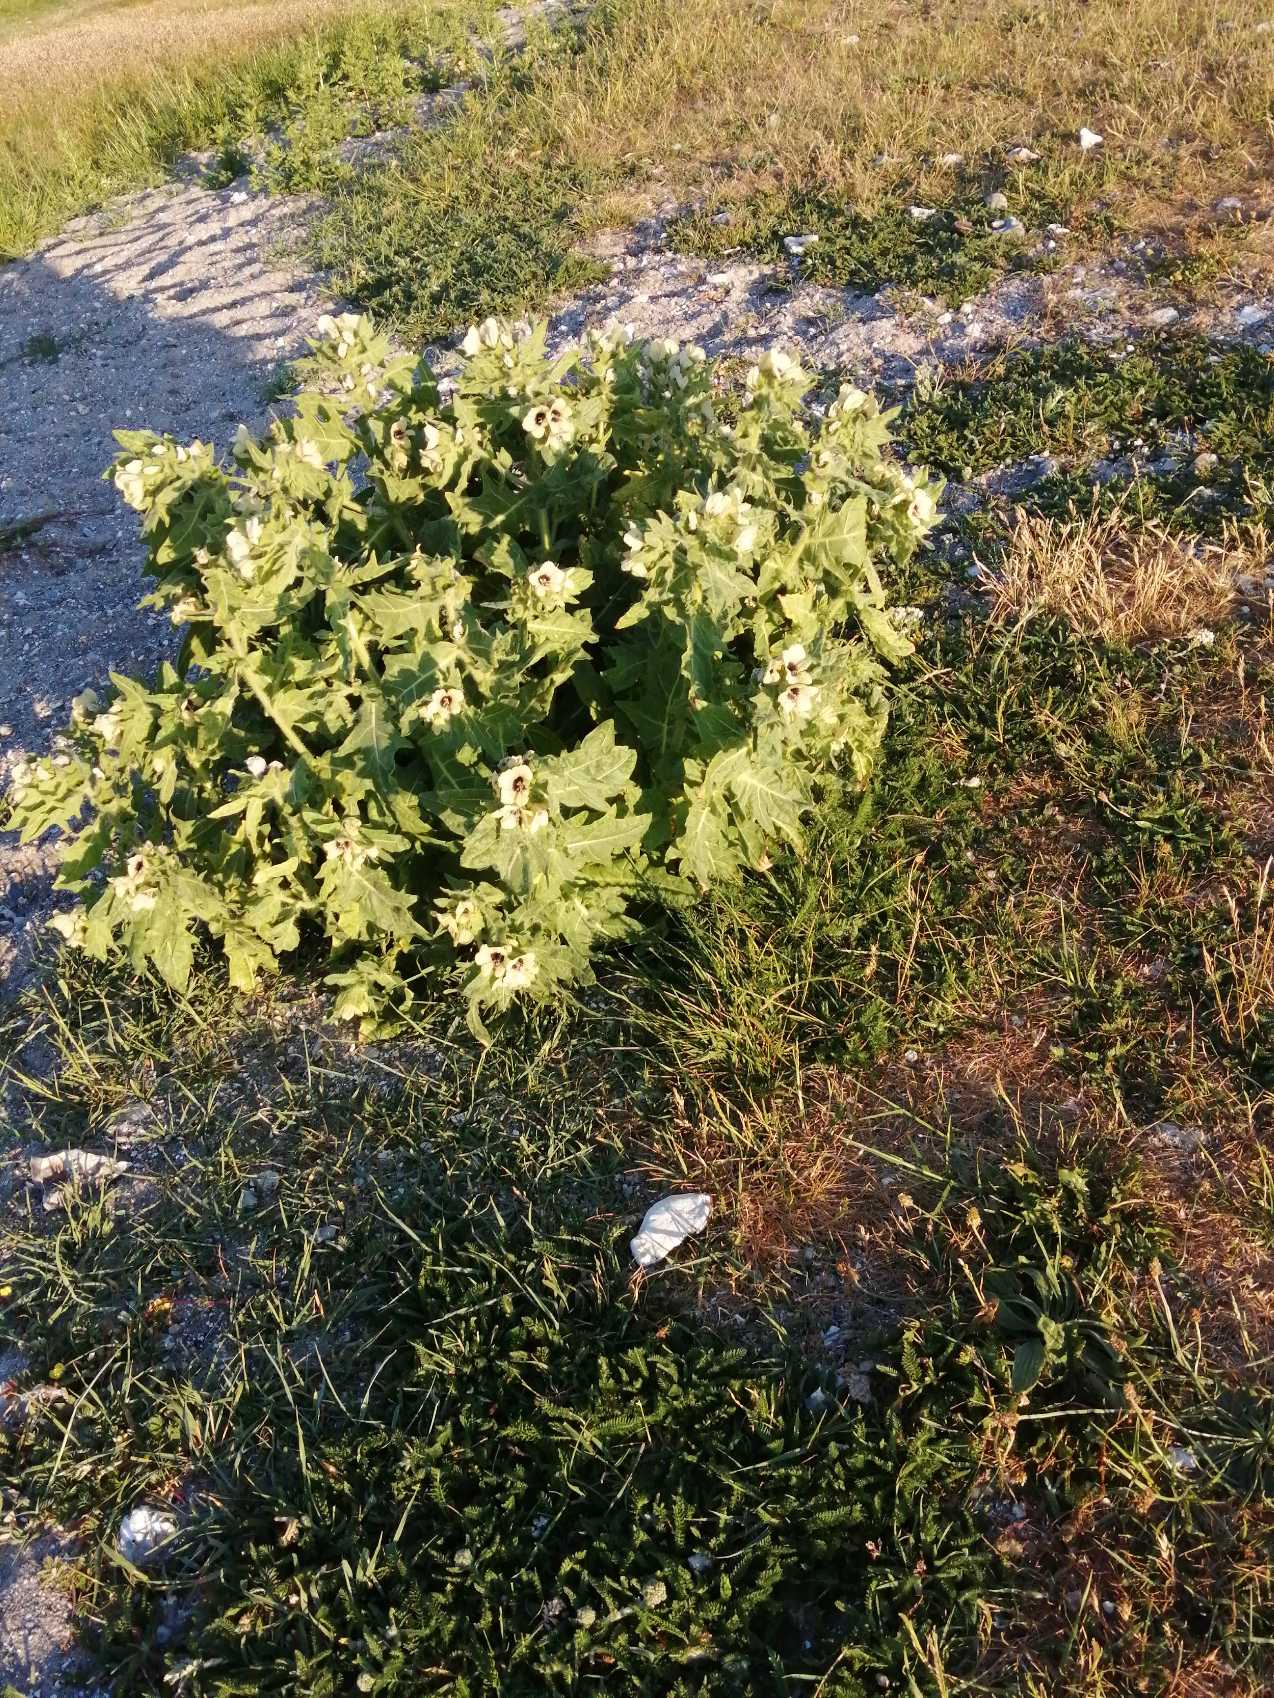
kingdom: Plantae
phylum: Tracheophyta
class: Magnoliopsida
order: Solanales
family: Solanaceae
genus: Hyoscyamus
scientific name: Hyoscyamus niger
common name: Bulmeurt
